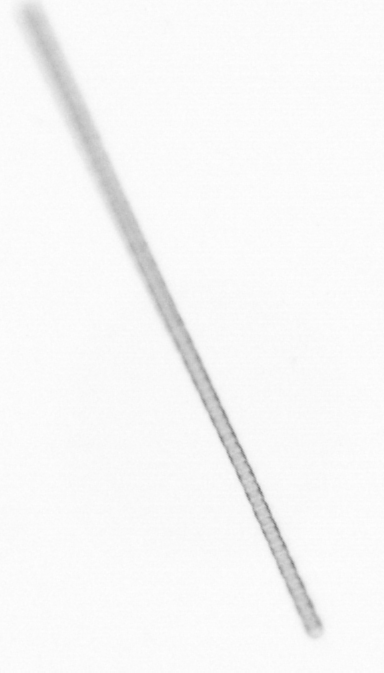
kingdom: Chromista
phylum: Ochrophyta
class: Bacillariophyceae
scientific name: Bacillariophyceae
